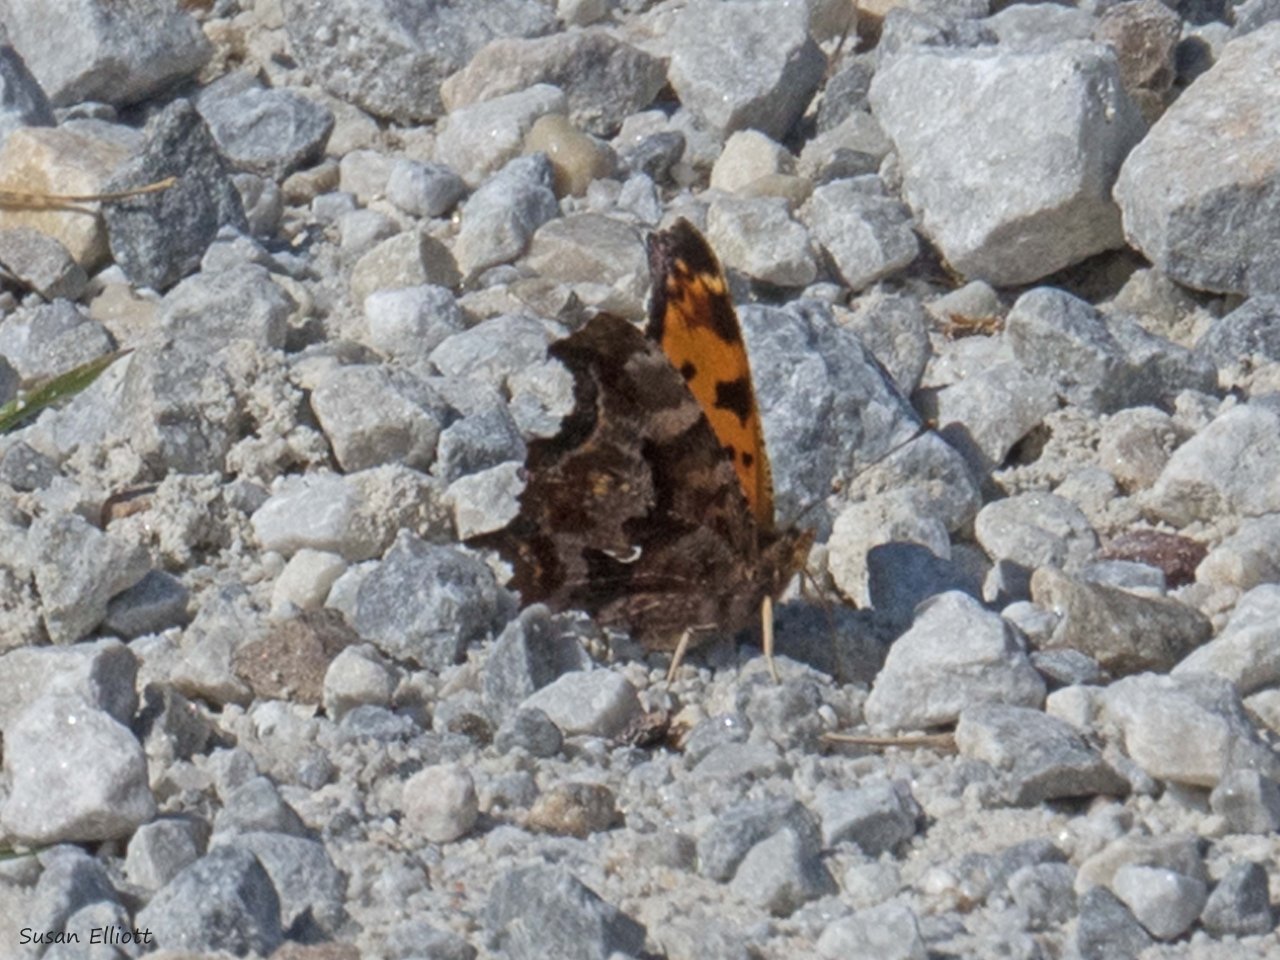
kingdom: Animalia
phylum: Arthropoda
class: Insecta
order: Lepidoptera
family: Nymphalidae
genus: Polygonia
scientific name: Polygonia interrogationis
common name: Question Mark
